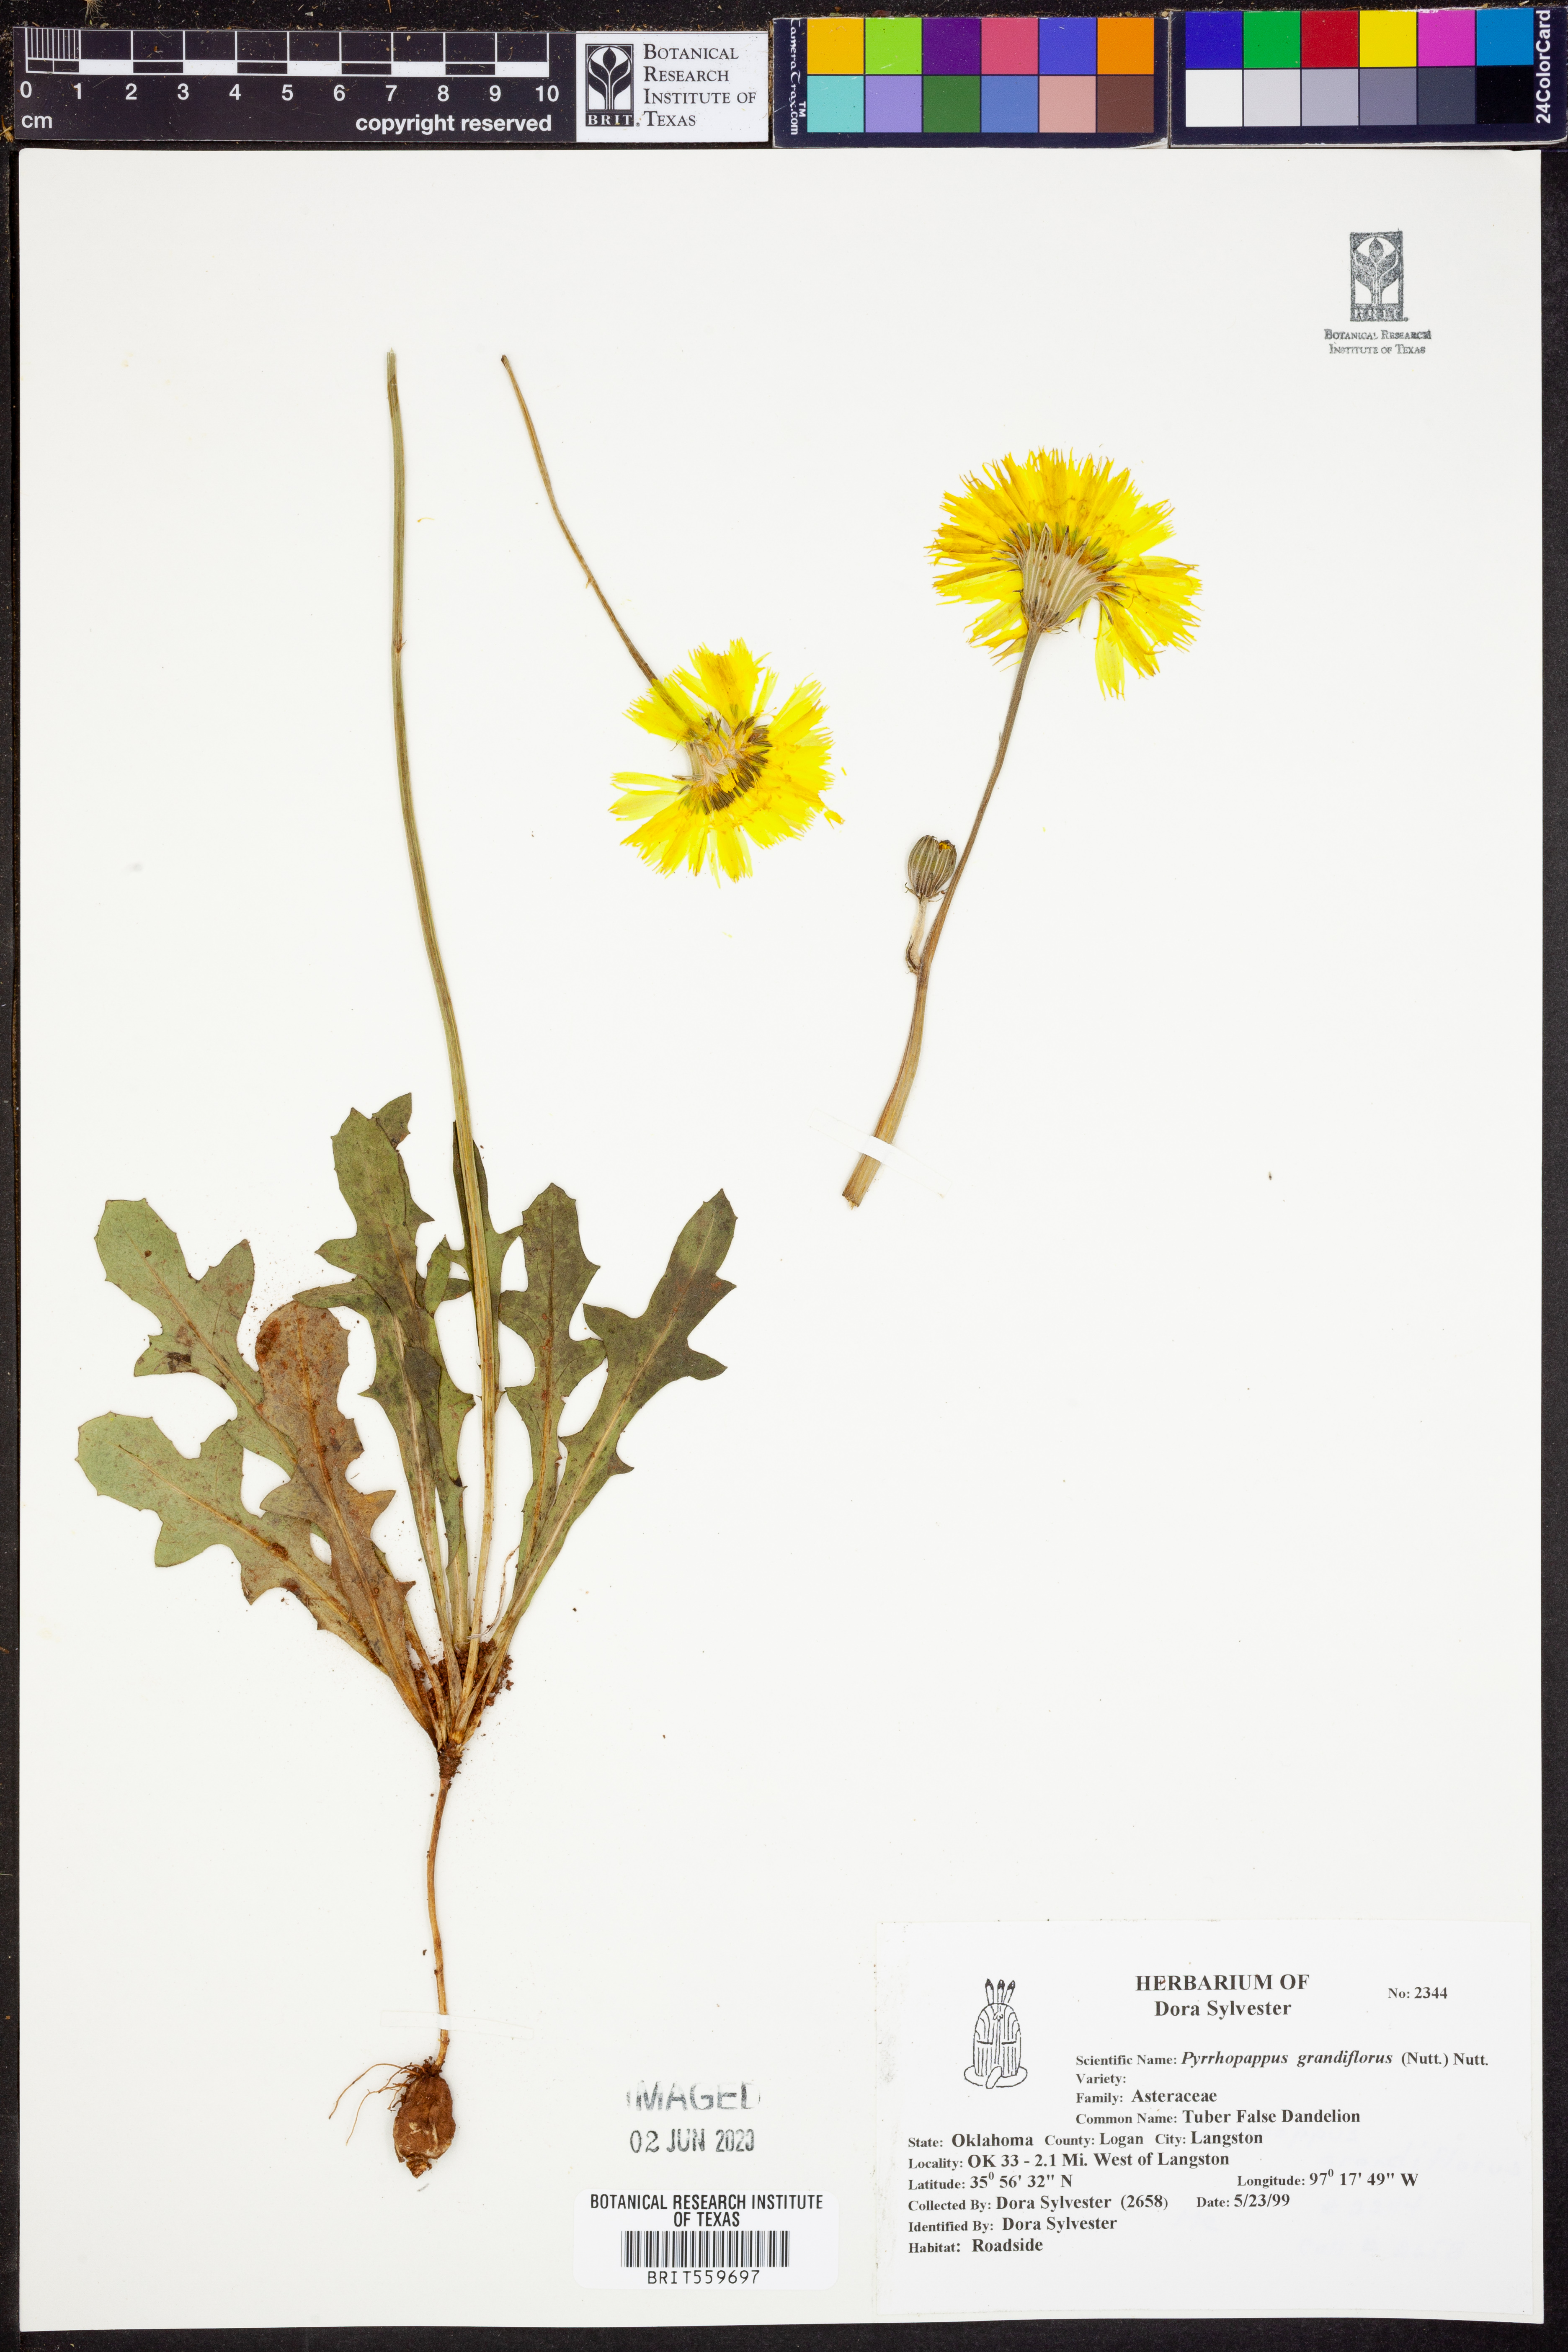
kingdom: Plantae
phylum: Tracheophyta
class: Magnoliopsida
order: Asterales
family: Asteraceae
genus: Pyrrhopappus
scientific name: Pyrrhopappus grandiflorus
